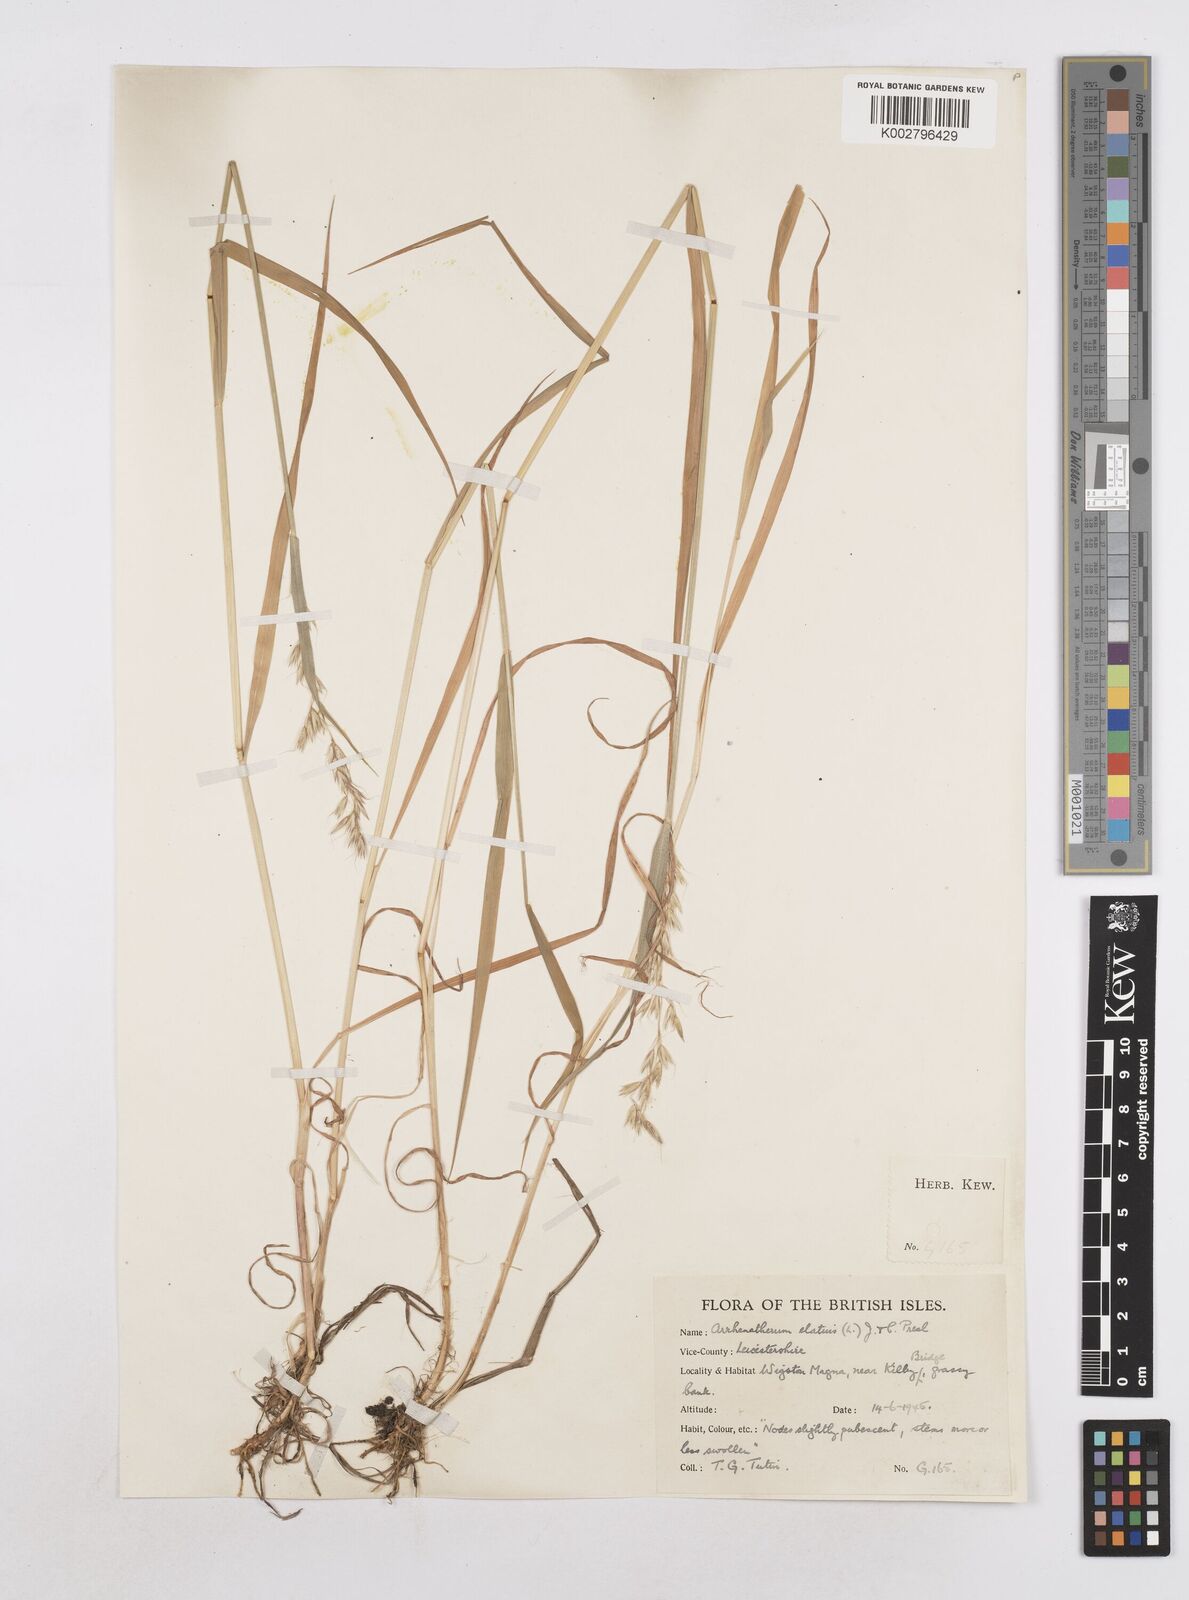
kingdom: Plantae
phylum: Tracheophyta
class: Liliopsida
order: Poales
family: Poaceae
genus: Arrhenatherum
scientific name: Arrhenatherum elatius
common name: Tall oatgrass
